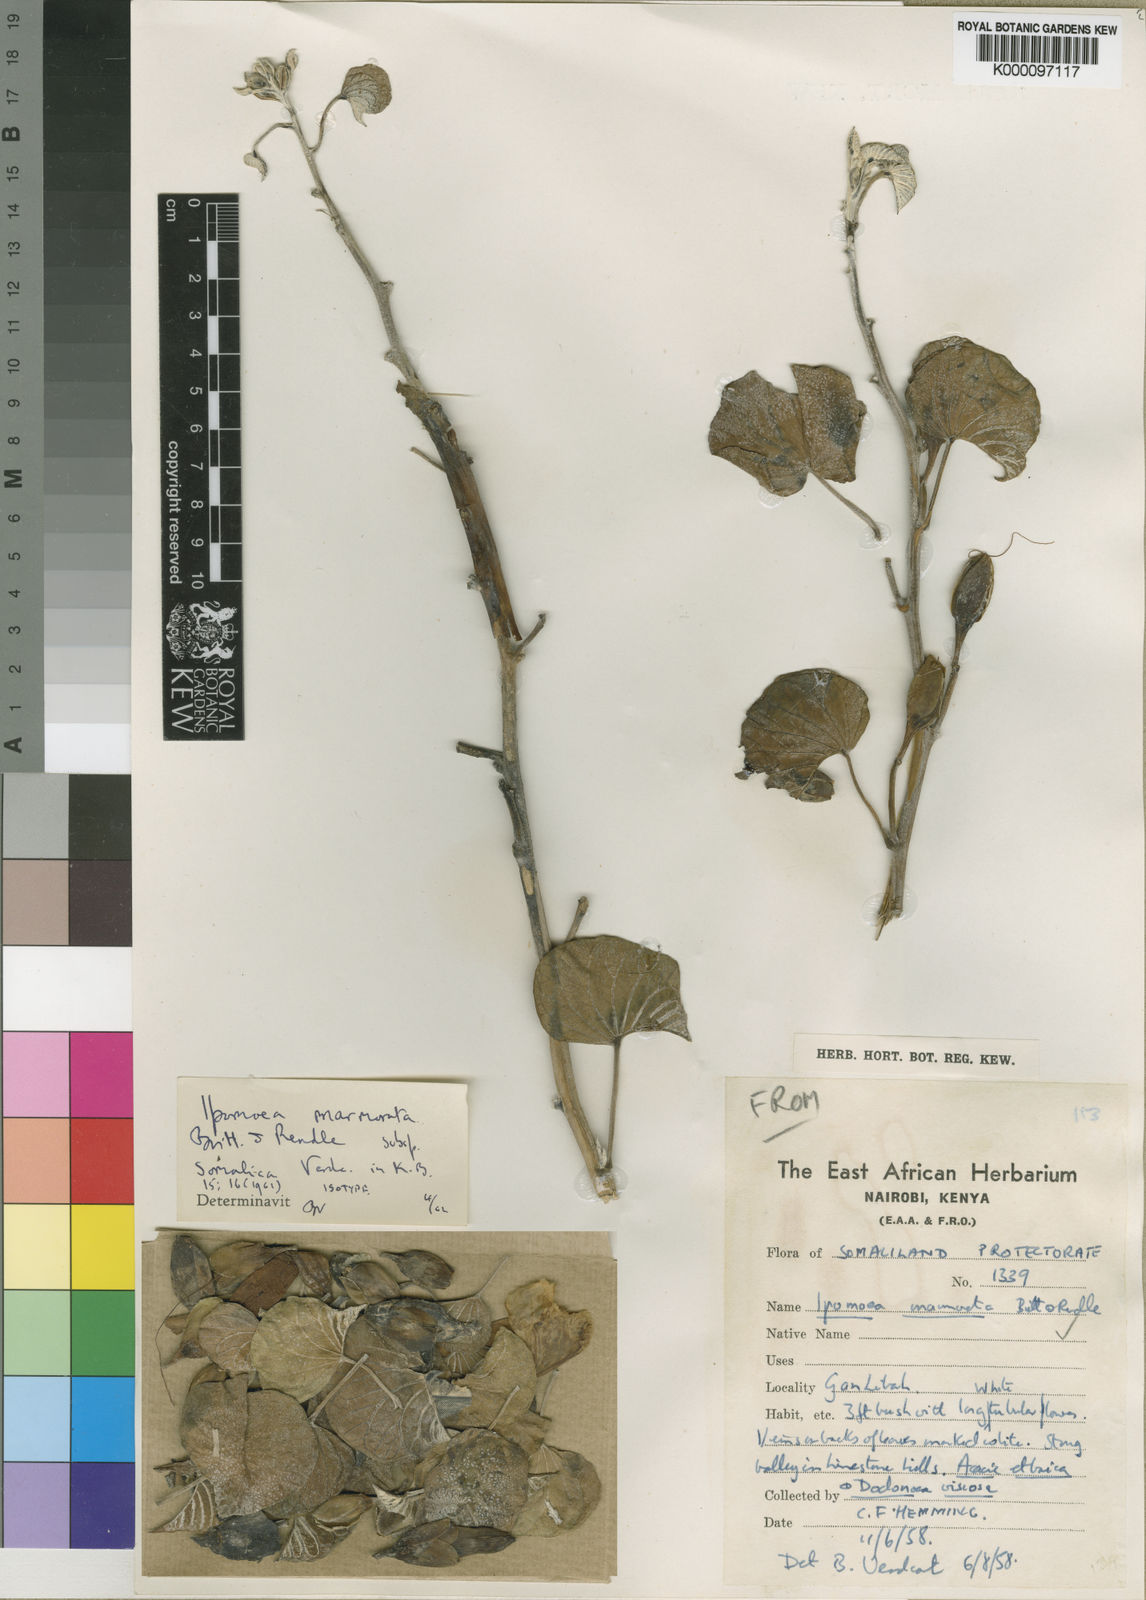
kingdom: Plantae
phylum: Tracheophyta
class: Magnoliopsida
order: Solanales
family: Convolvulaceae
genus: Ipomoea
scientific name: Ipomoea marmorata
